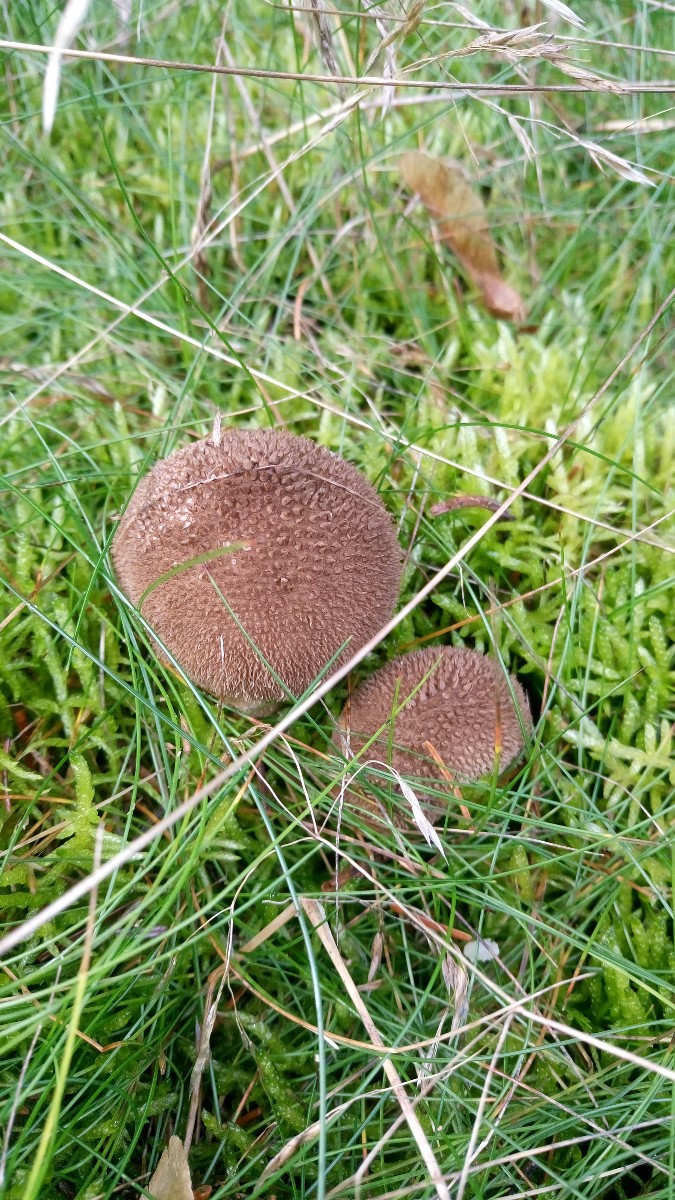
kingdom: Fungi
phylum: Basidiomycota
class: Agaricomycetes
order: Agaricales
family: Lycoperdaceae
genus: Lycoperdon
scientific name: Lycoperdon nigrescens
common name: sortagtig støvbold
